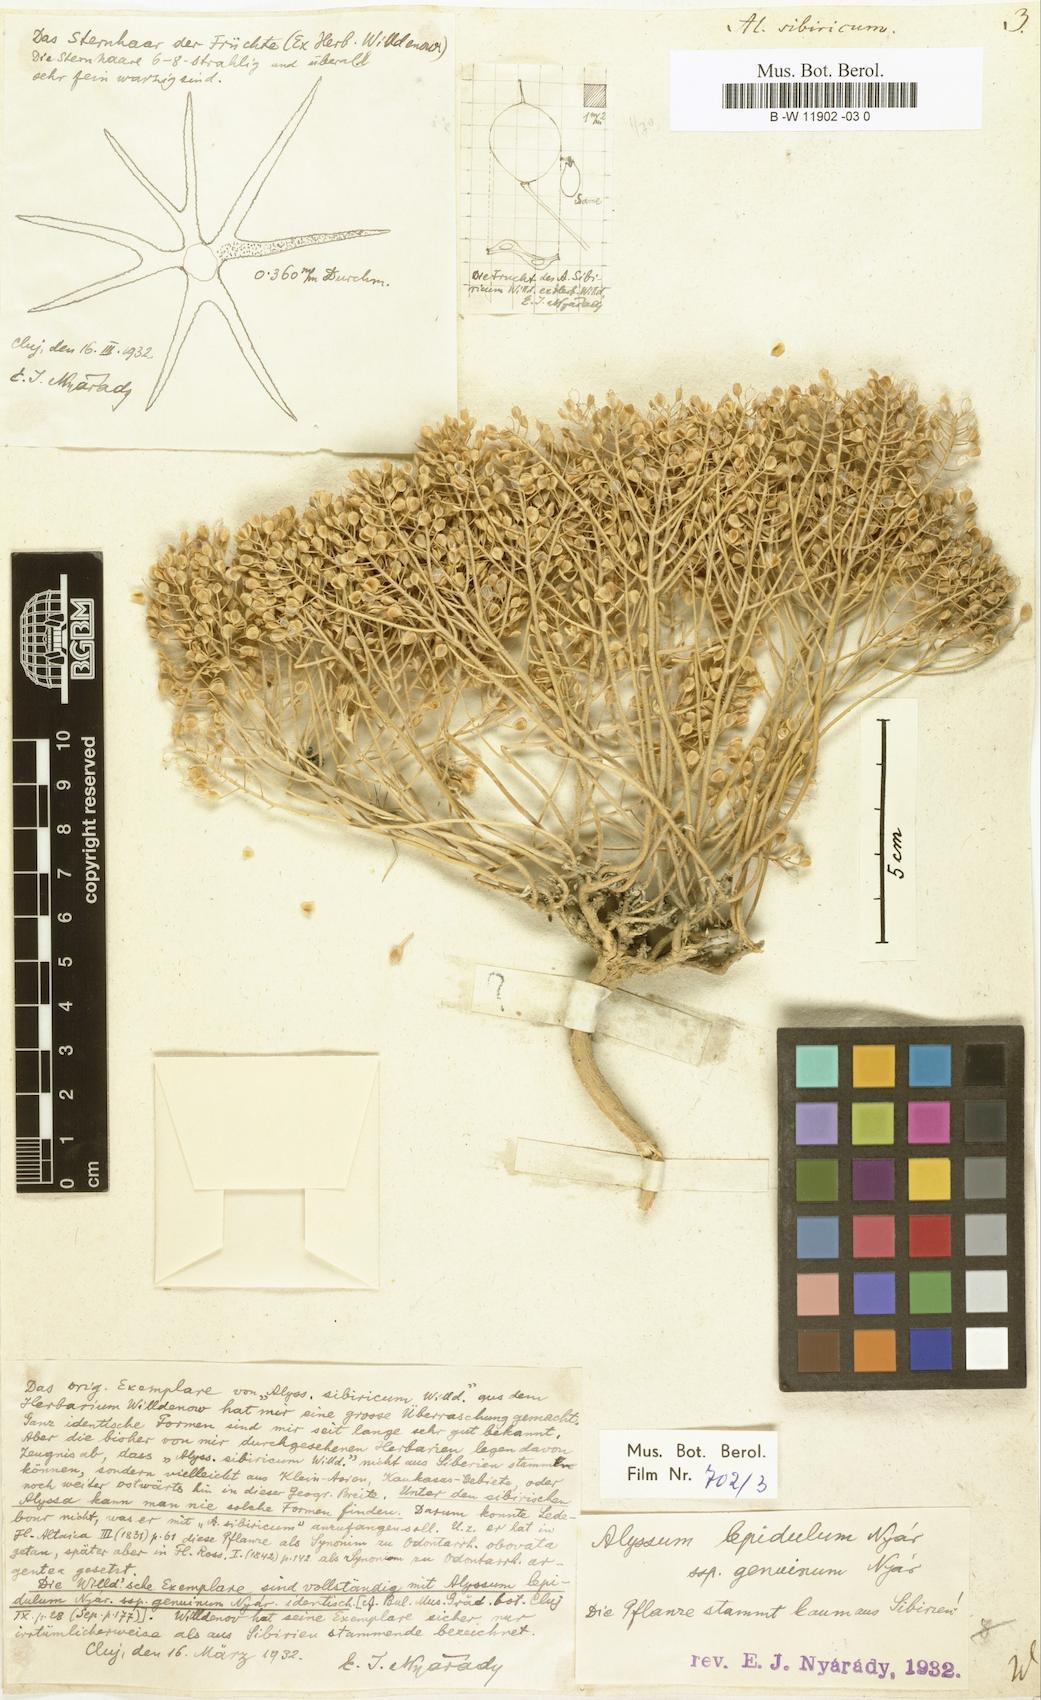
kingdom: Plantae
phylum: Tracheophyta
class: Magnoliopsida
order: Brassicales
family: Brassicaceae
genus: Odontarrhena
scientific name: Odontarrhena sibirica
